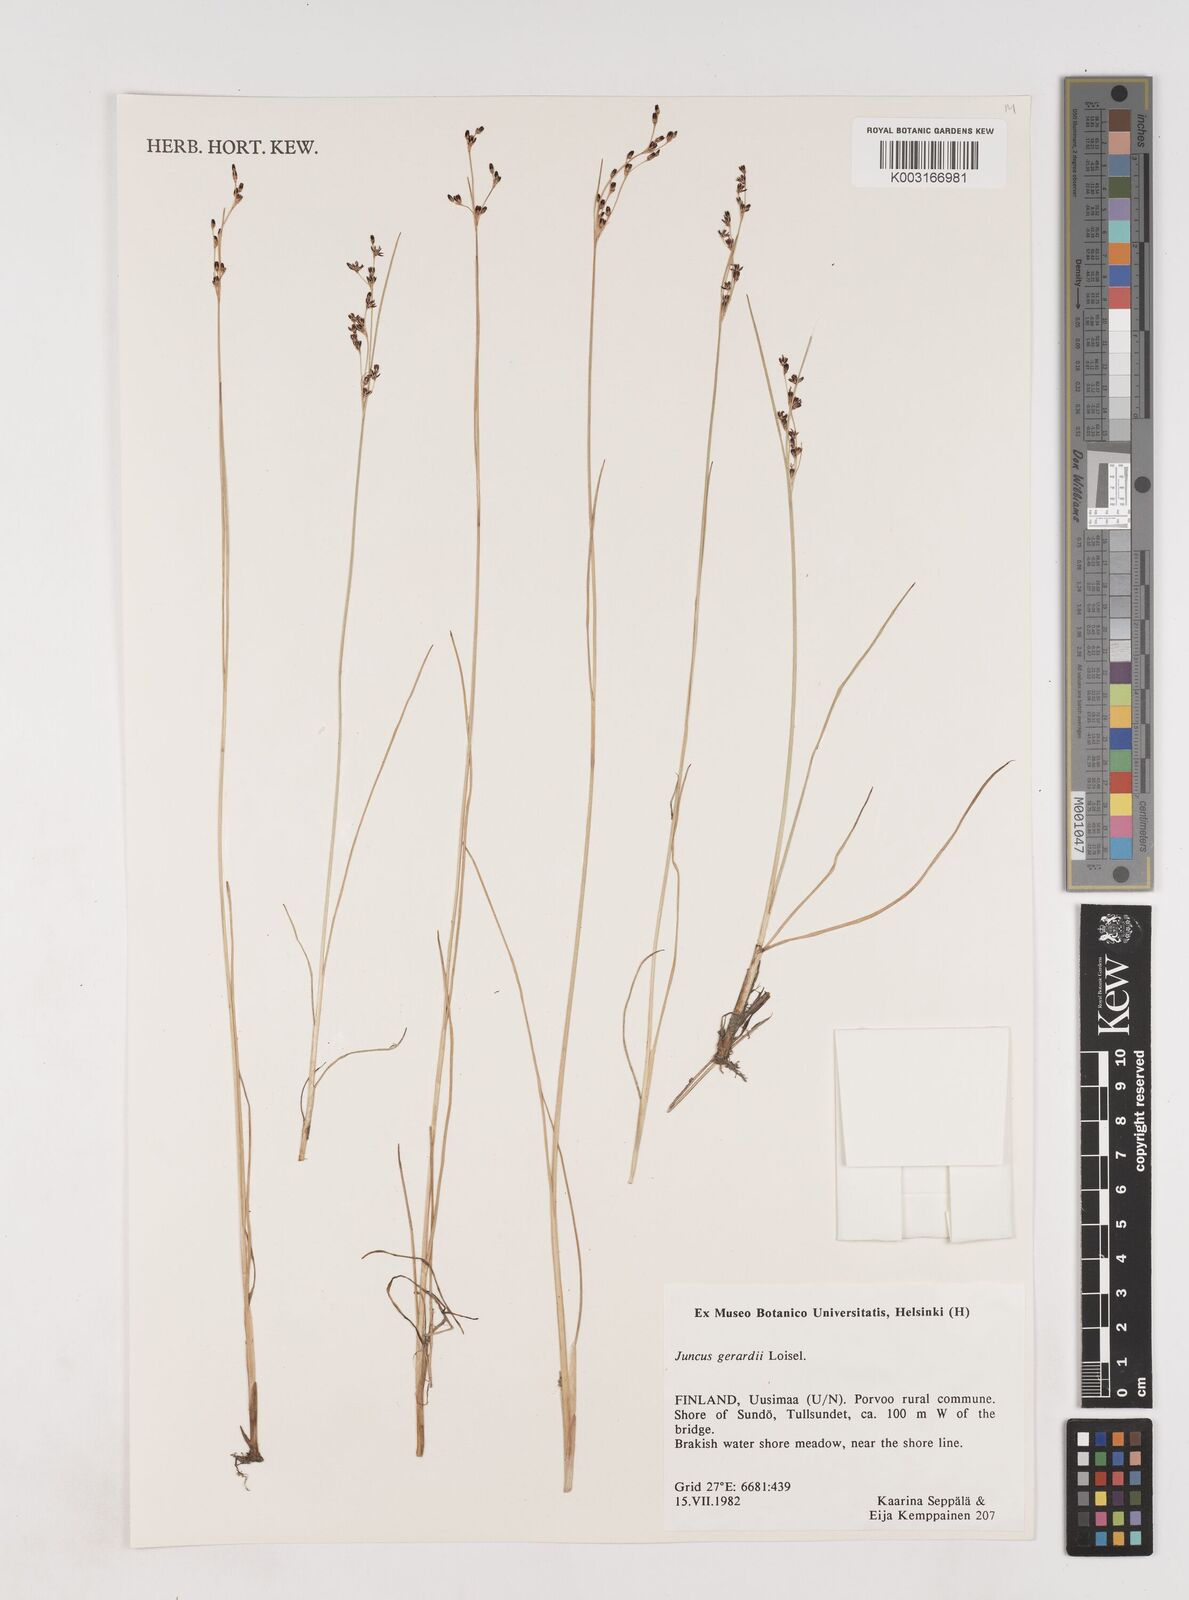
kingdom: Plantae
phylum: Tracheophyta
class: Liliopsida
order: Poales
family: Juncaceae
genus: Juncus
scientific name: Juncus gerardi
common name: Saltmarsh rush
